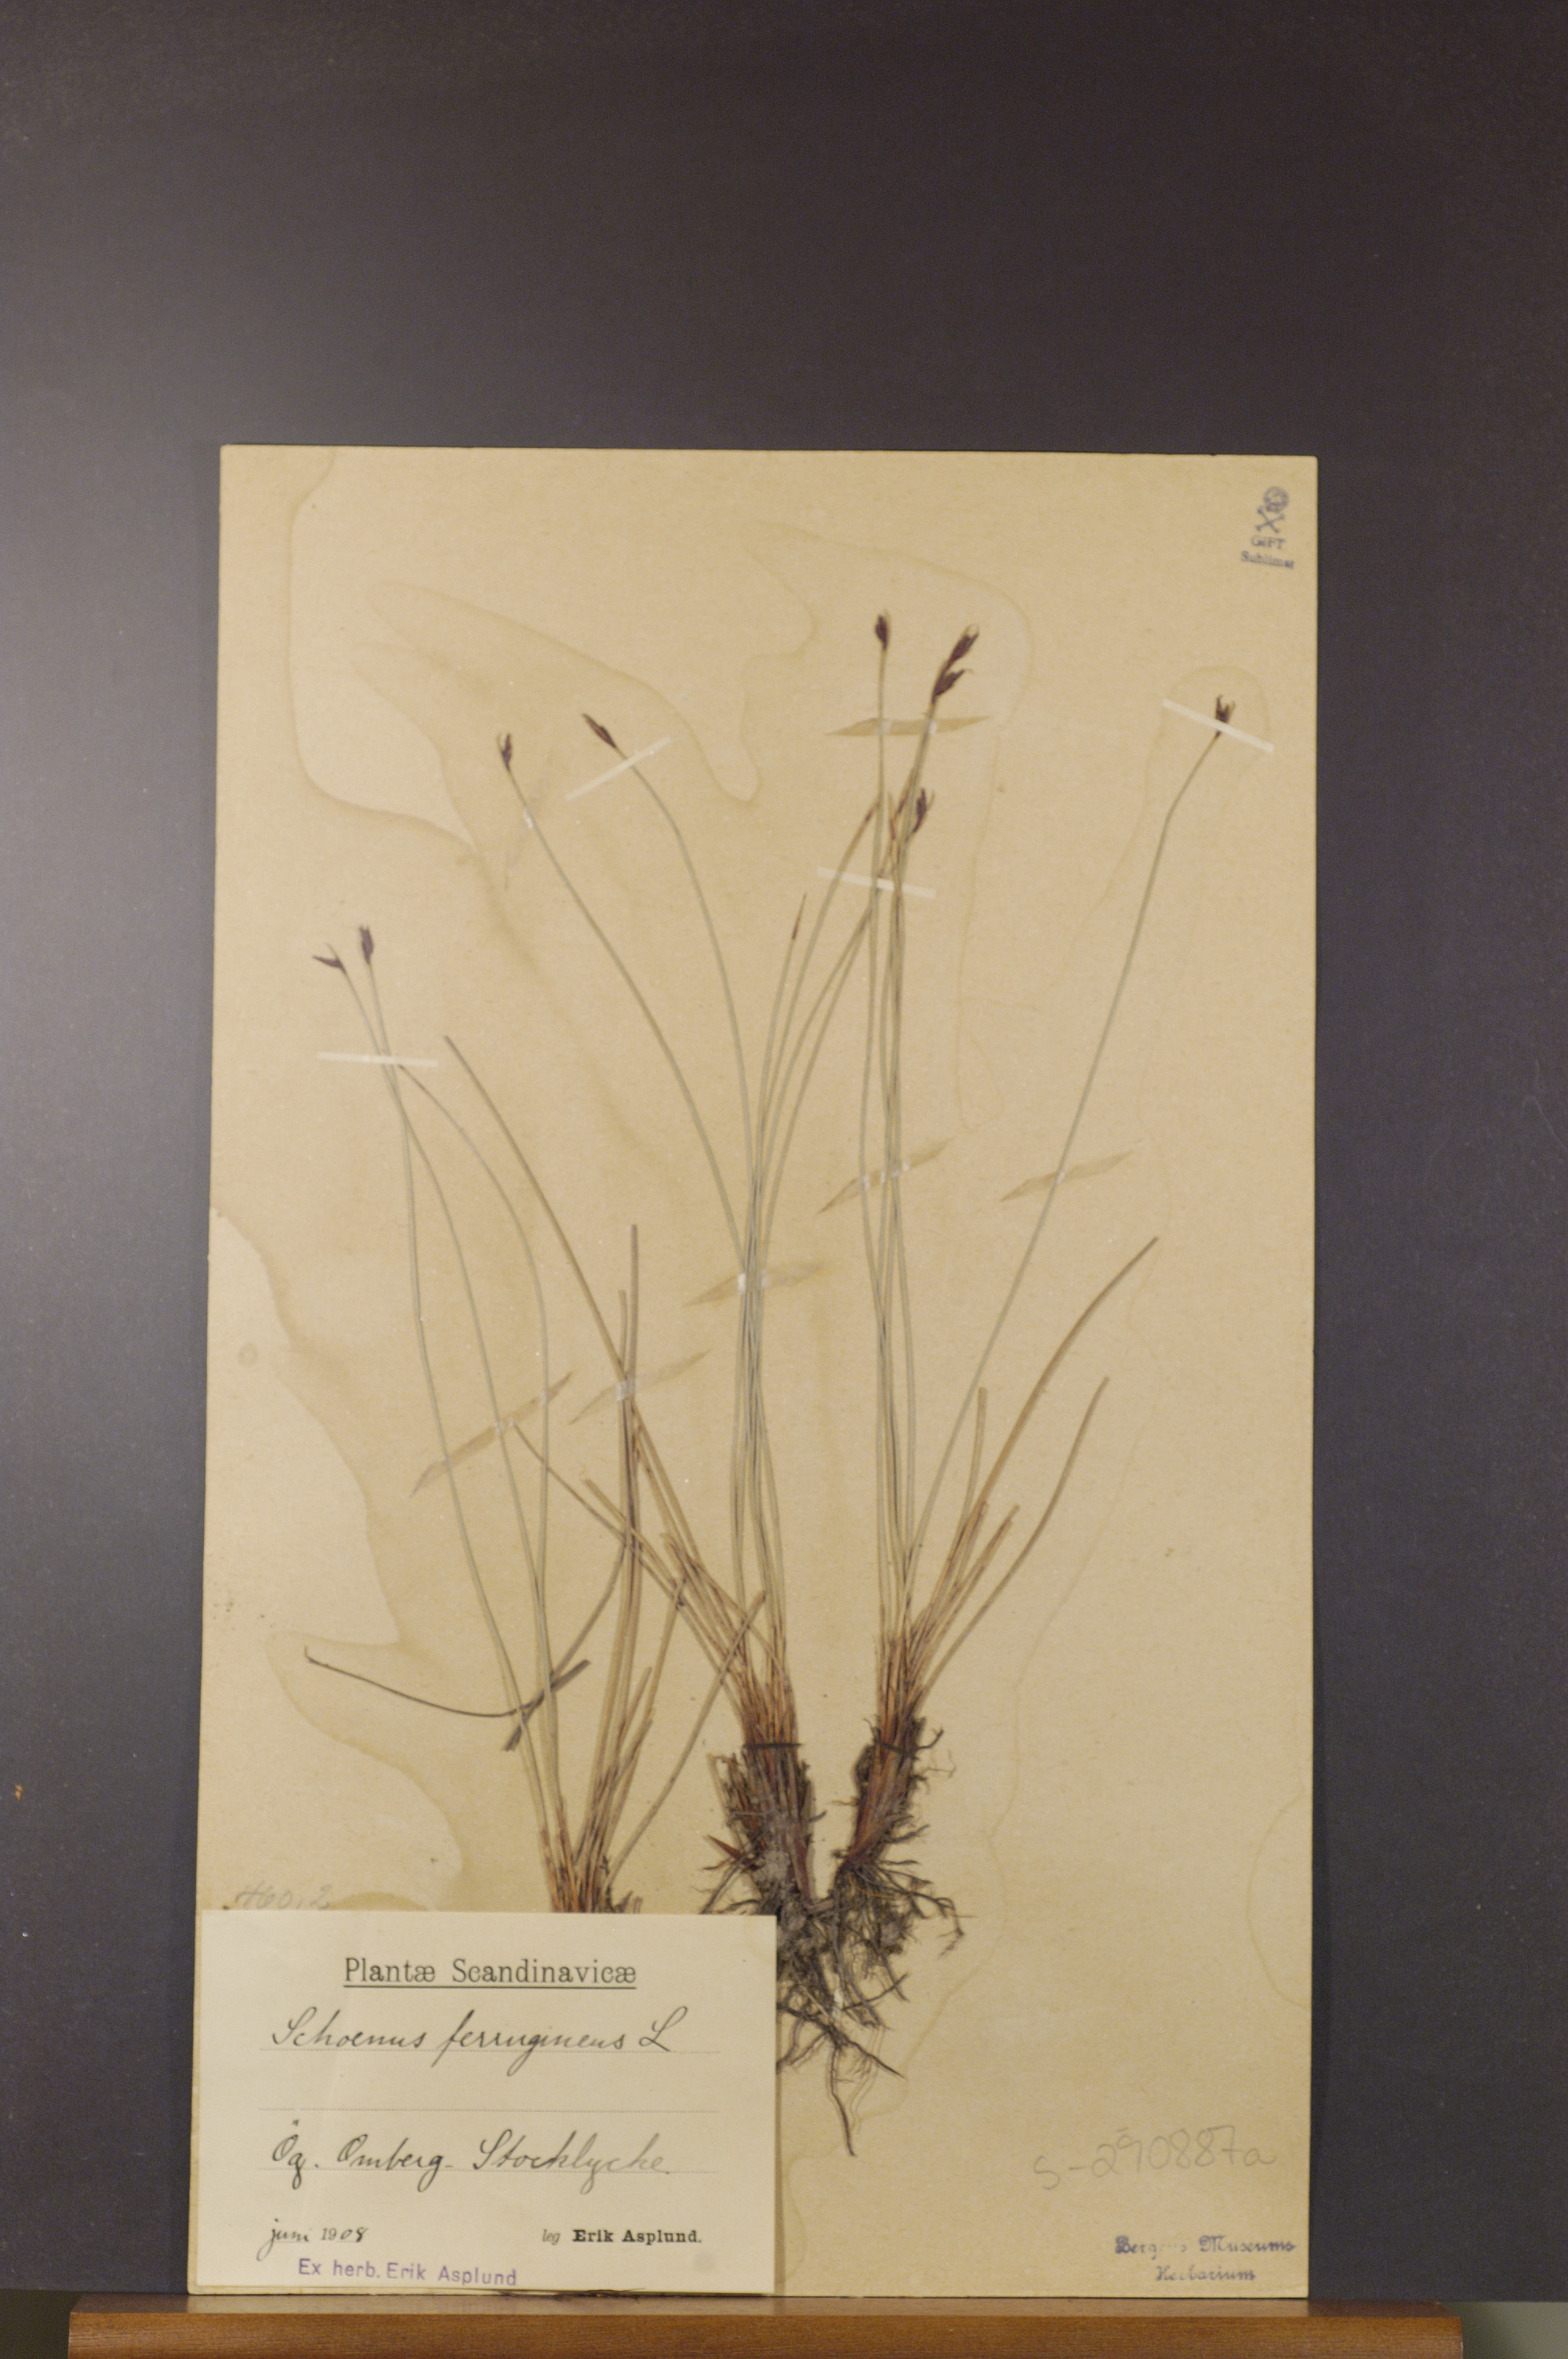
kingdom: Plantae
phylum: Tracheophyta
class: Liliopsida
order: Poales
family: Cyperaceae
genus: Schoenus
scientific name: Schoenus ferrugineus
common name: Brown bog-rush
